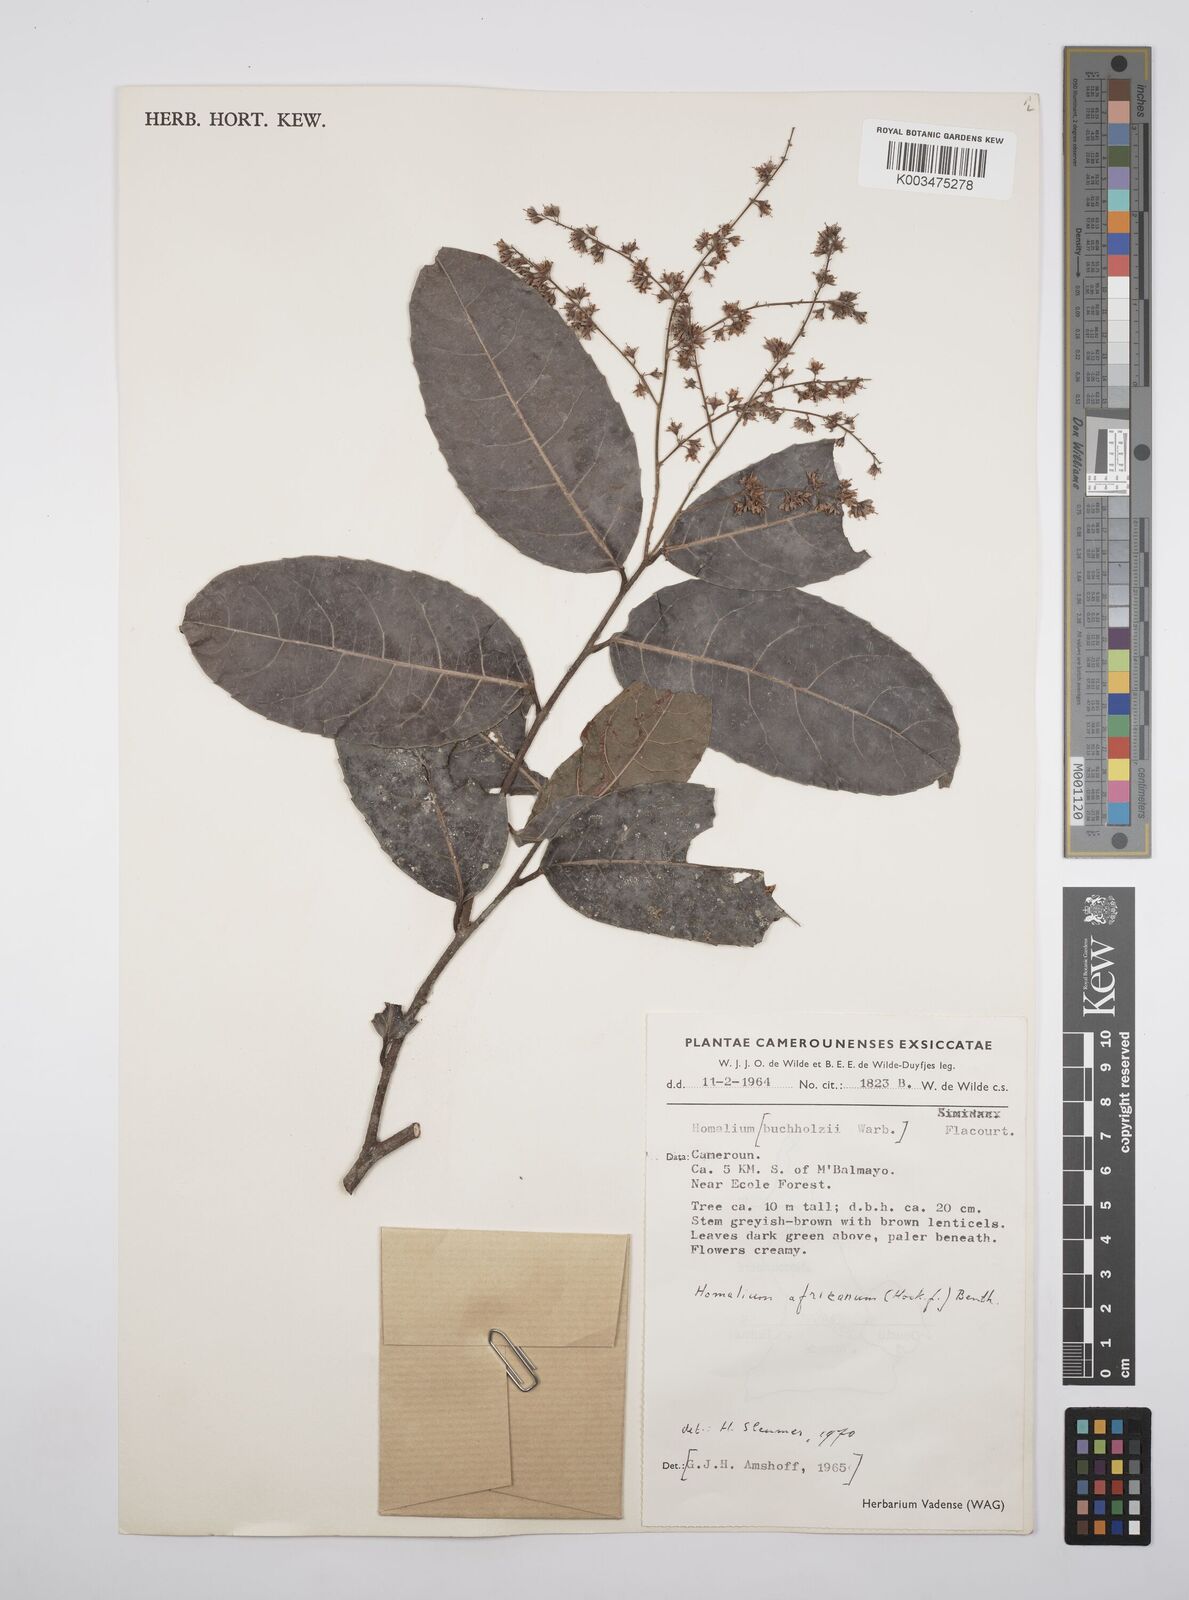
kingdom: Plantae
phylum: Tracheophyta
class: Magnoliopsida
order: Malpighiales
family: Salicaceae
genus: Homalium
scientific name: Homalium africanum
